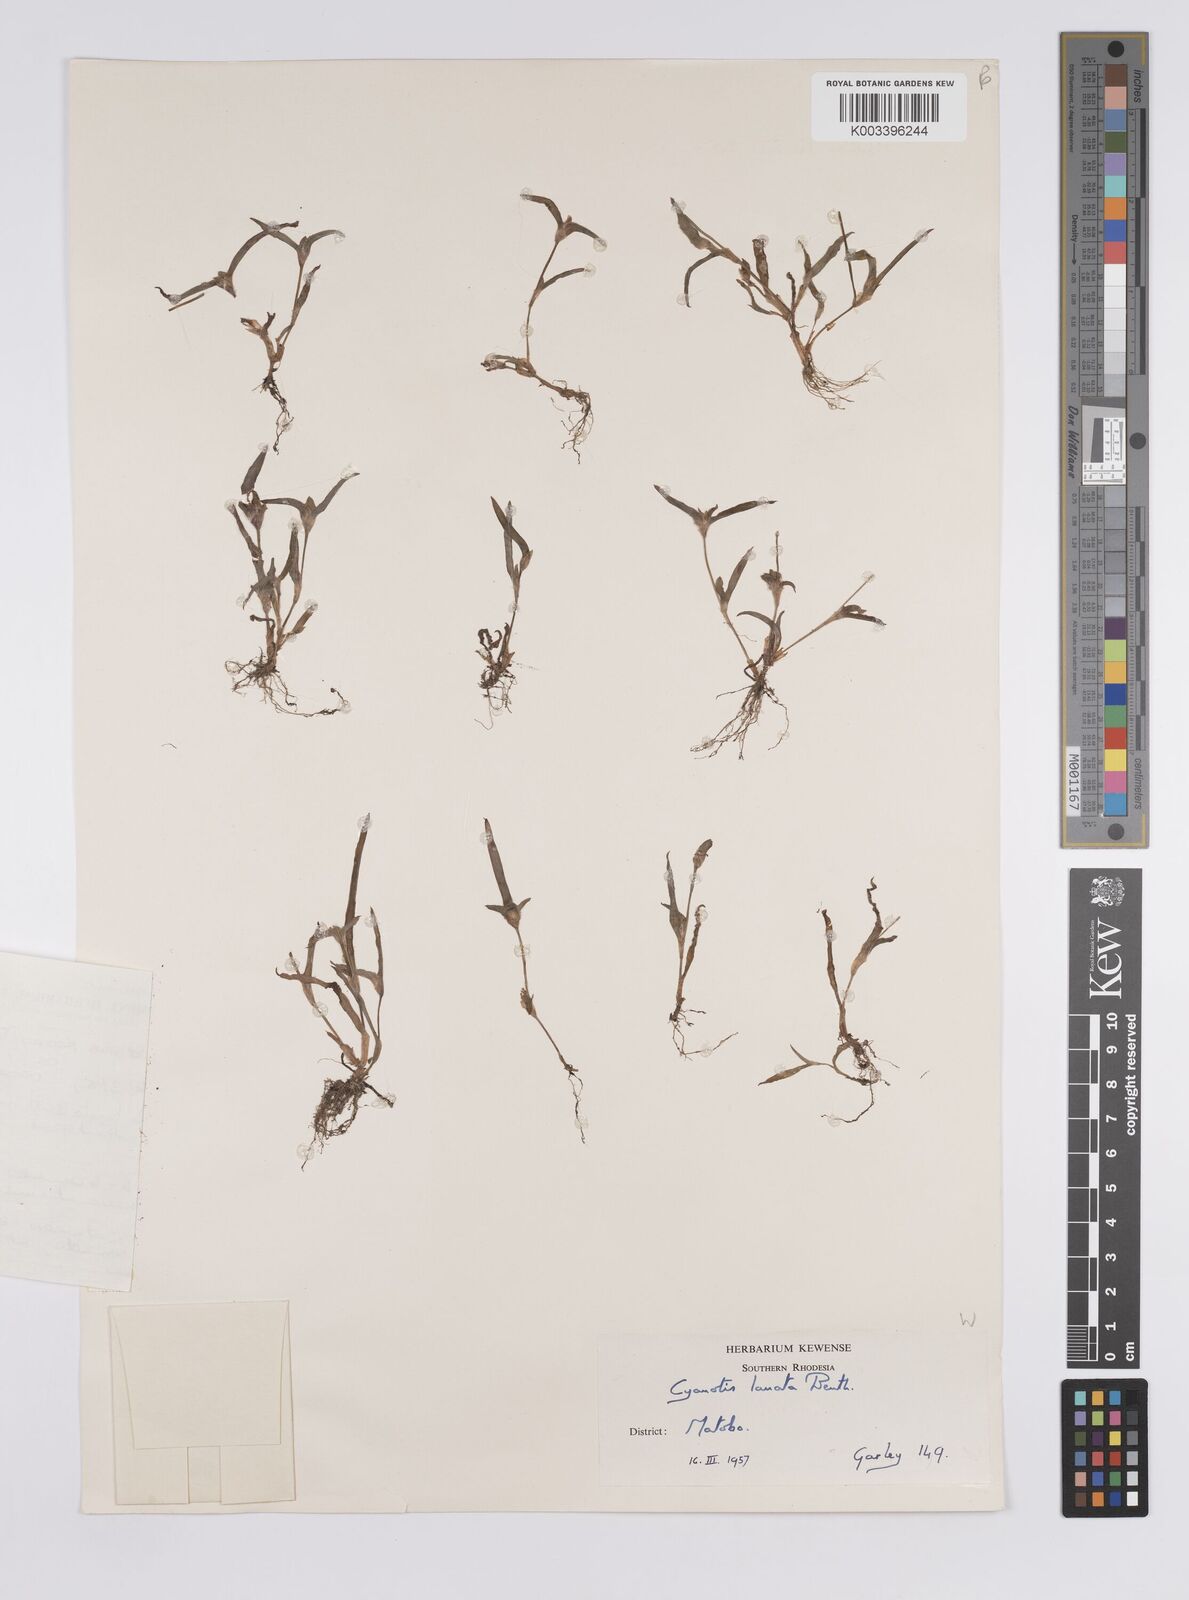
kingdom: Plantae
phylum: Tracheophyta
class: Liliopsida
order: Commelinales
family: Commelinaceae
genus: Cyanotis
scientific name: Cyanotis lanata
